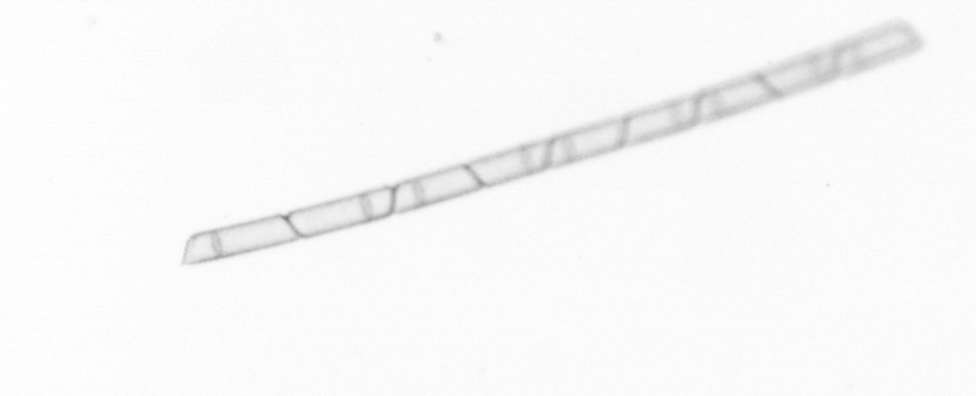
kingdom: Chromista
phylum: Ochrophyta
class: Bacillariophyceae
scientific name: Bacillariophyceae
